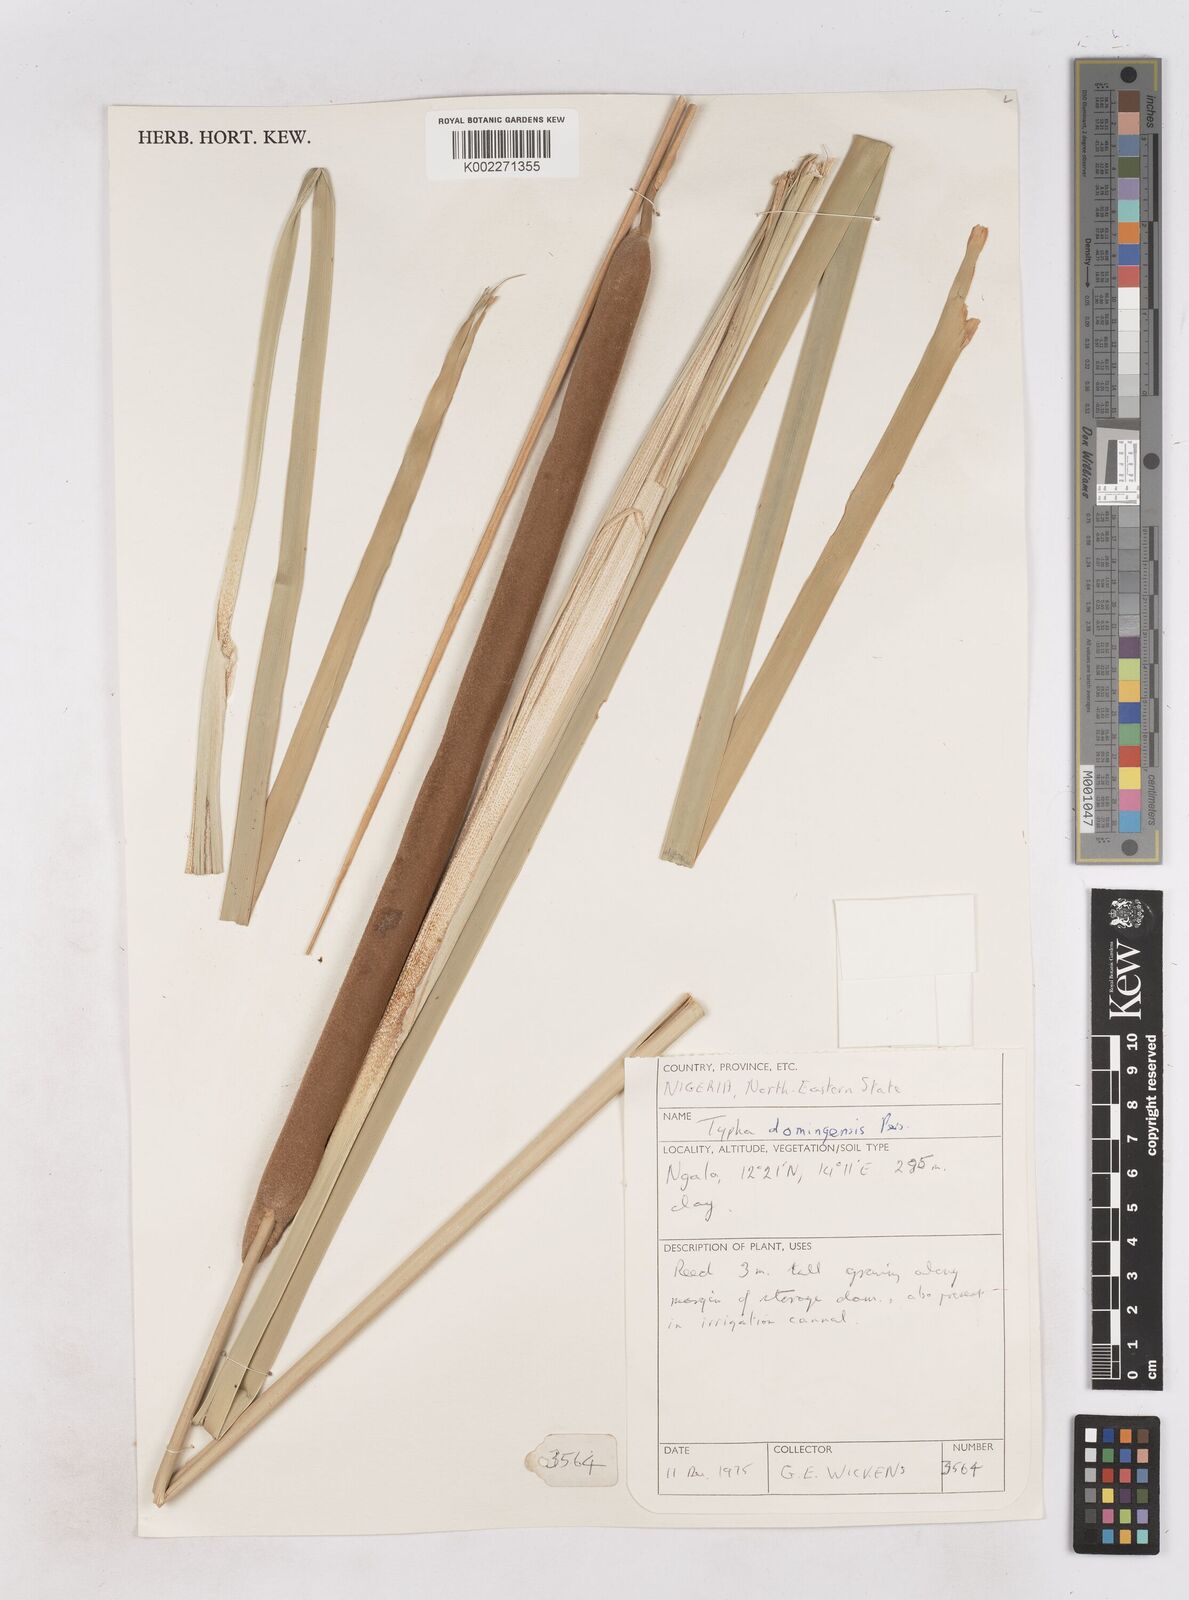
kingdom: Plantae
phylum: Tracheophyta
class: Liliopsida
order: Poales
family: Typhaceae
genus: Typha
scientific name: Typha domingensis
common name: Southern cattail
